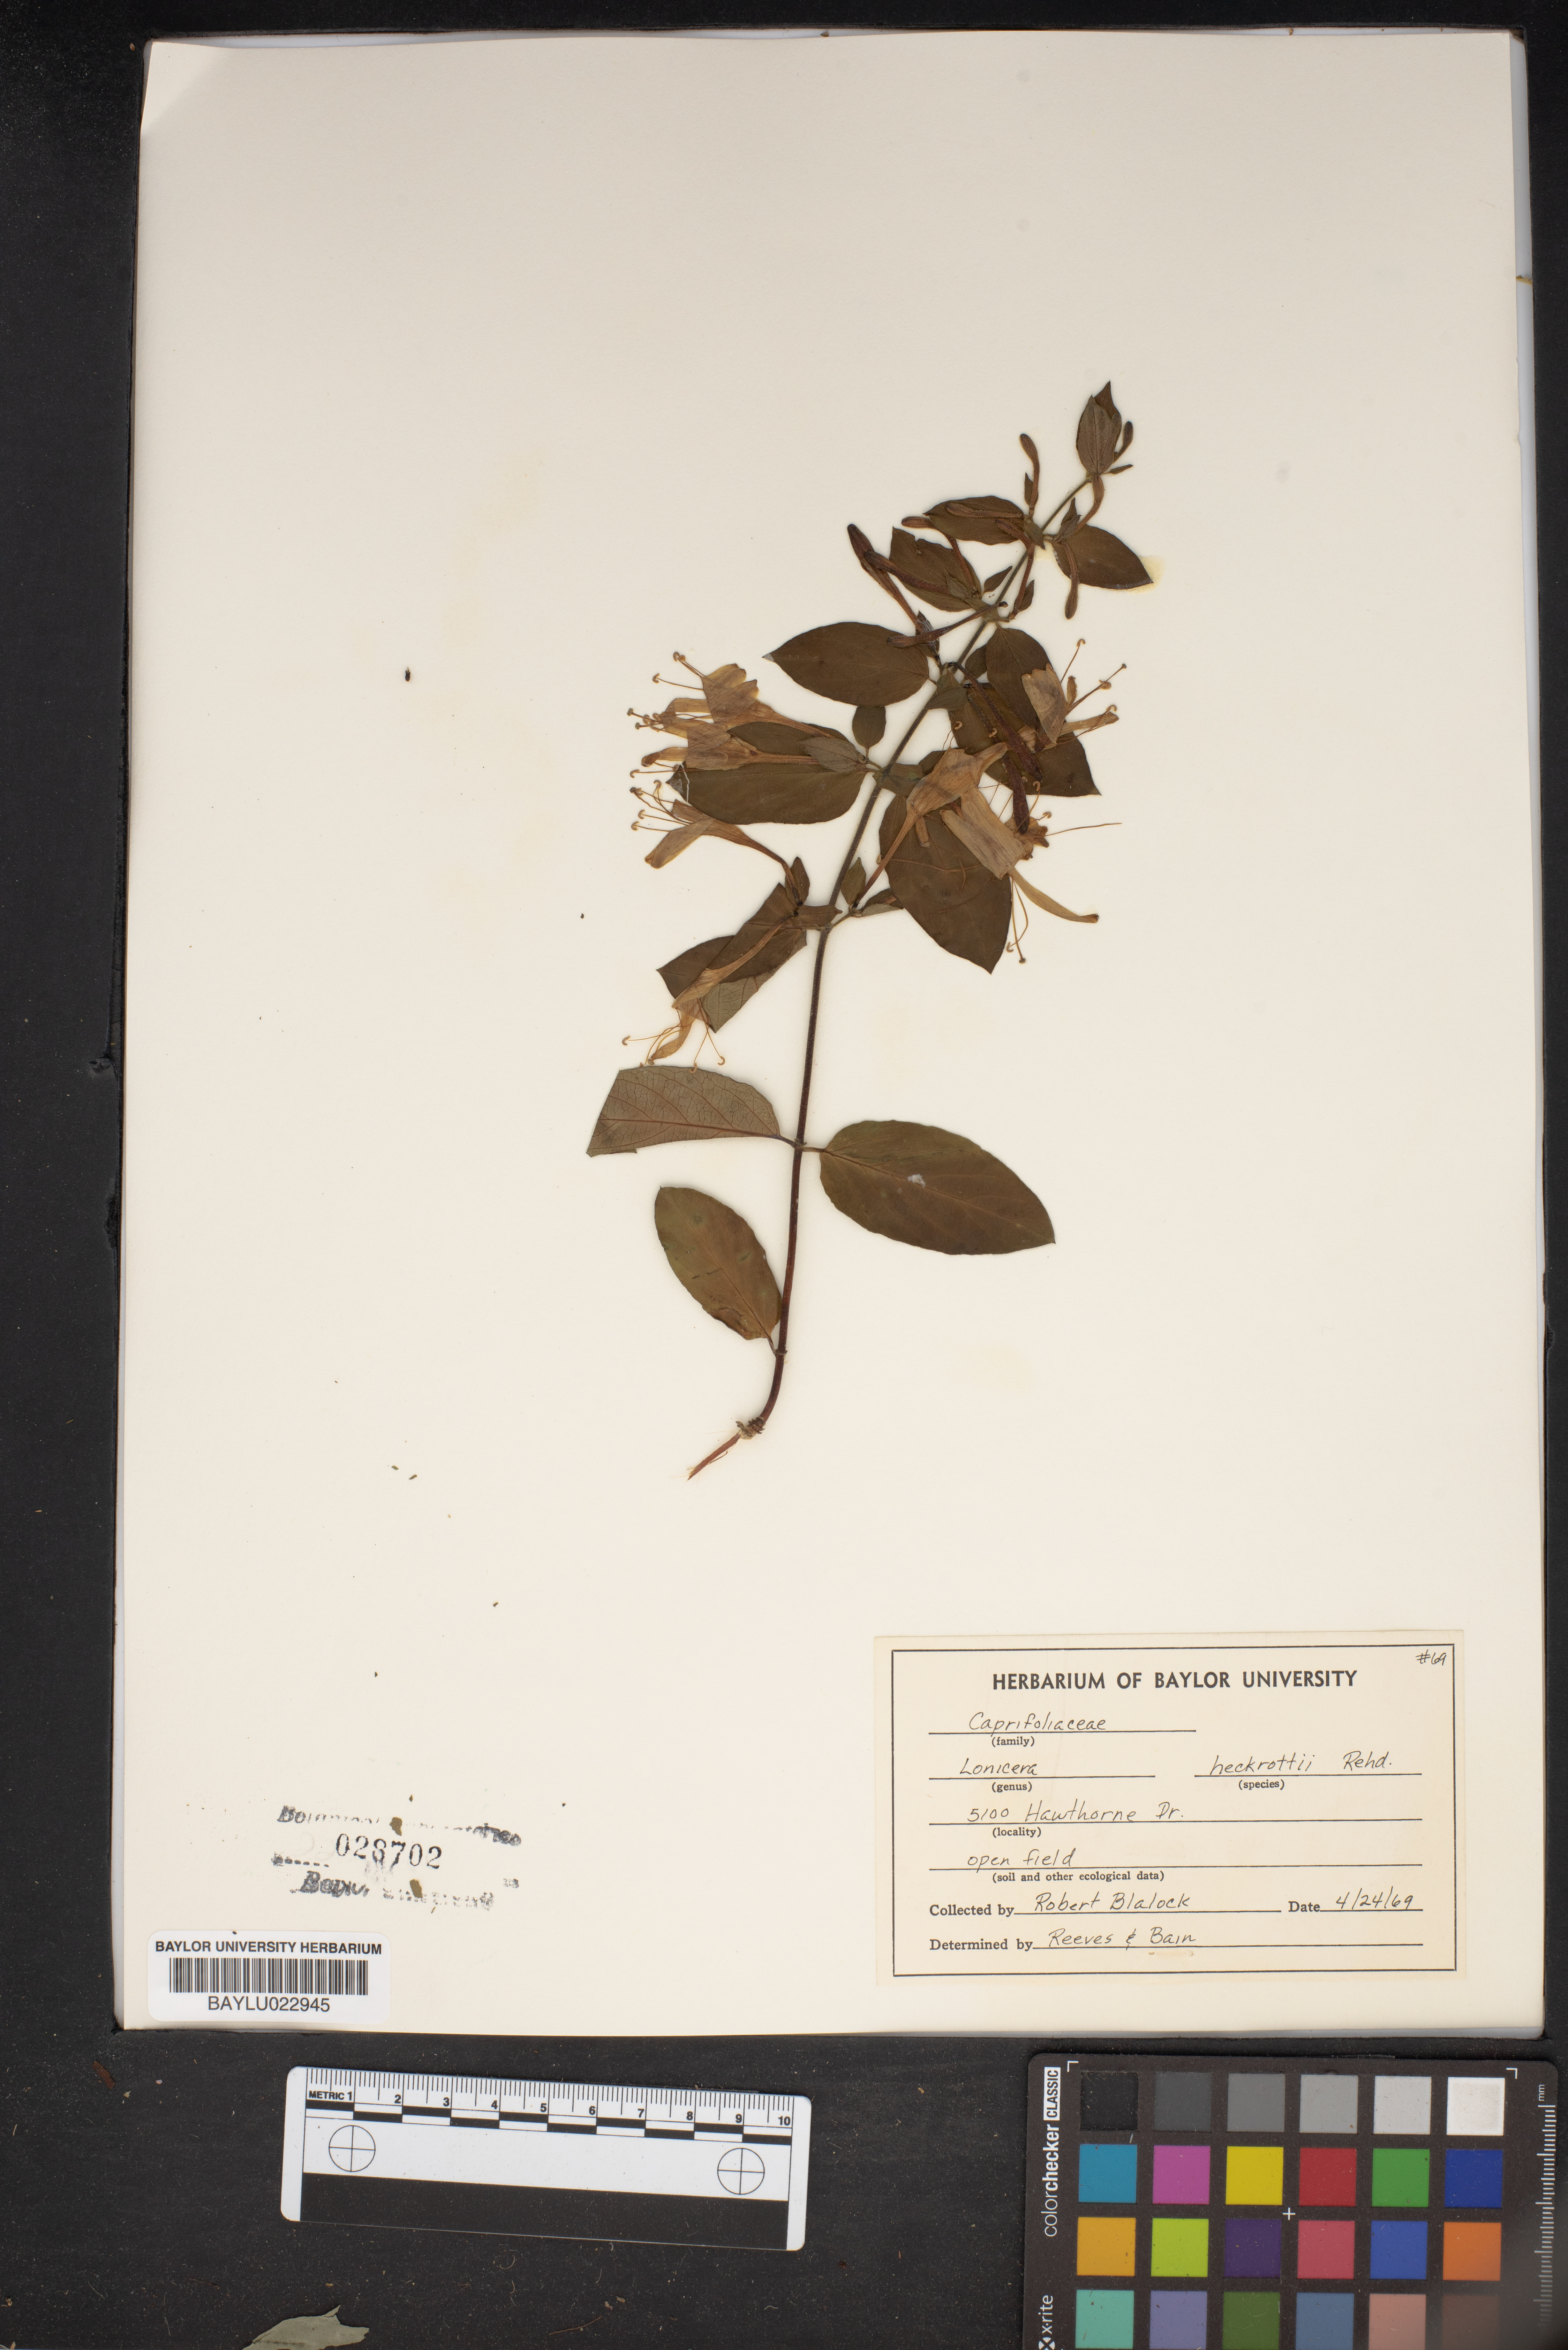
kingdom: Plantae
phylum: Tracheophyta
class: Magnoliopsida
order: Dipsacales
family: Caprifoliaceae
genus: Lonicera
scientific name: Lonicera heckrottii
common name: Honeysuckle
